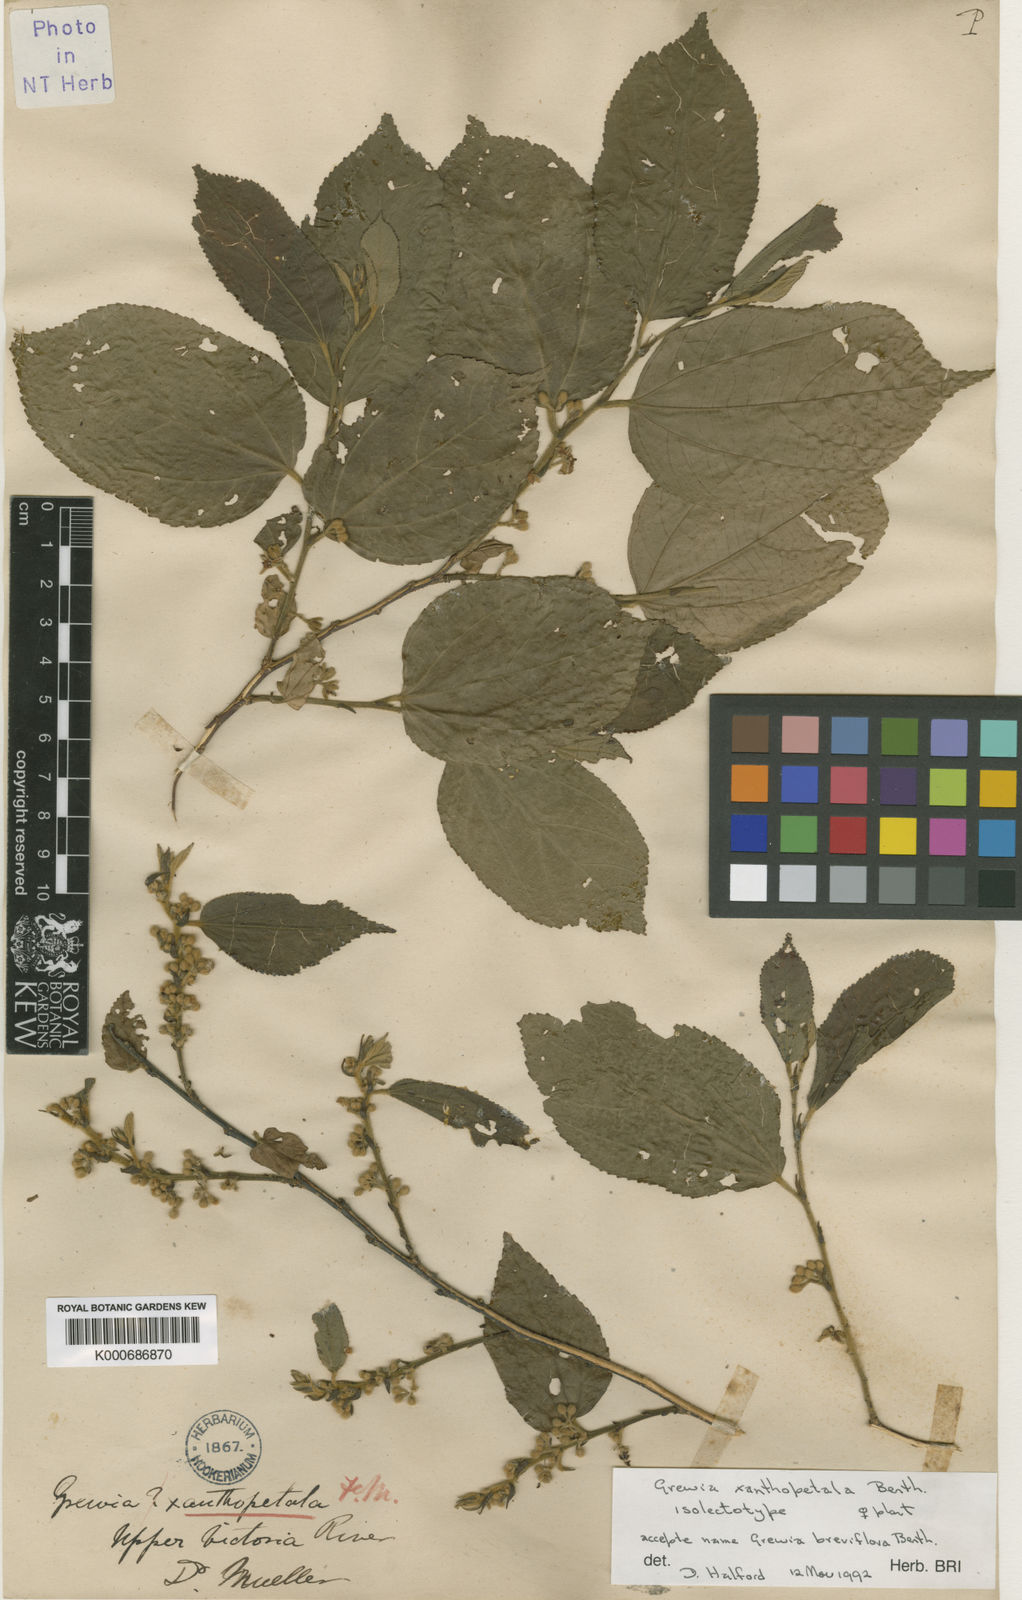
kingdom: Plantae
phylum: Tracheophyta
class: Magnoliopsida
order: Malvales
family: Malvaceae
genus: Grewia
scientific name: Grewia xanthopetala
